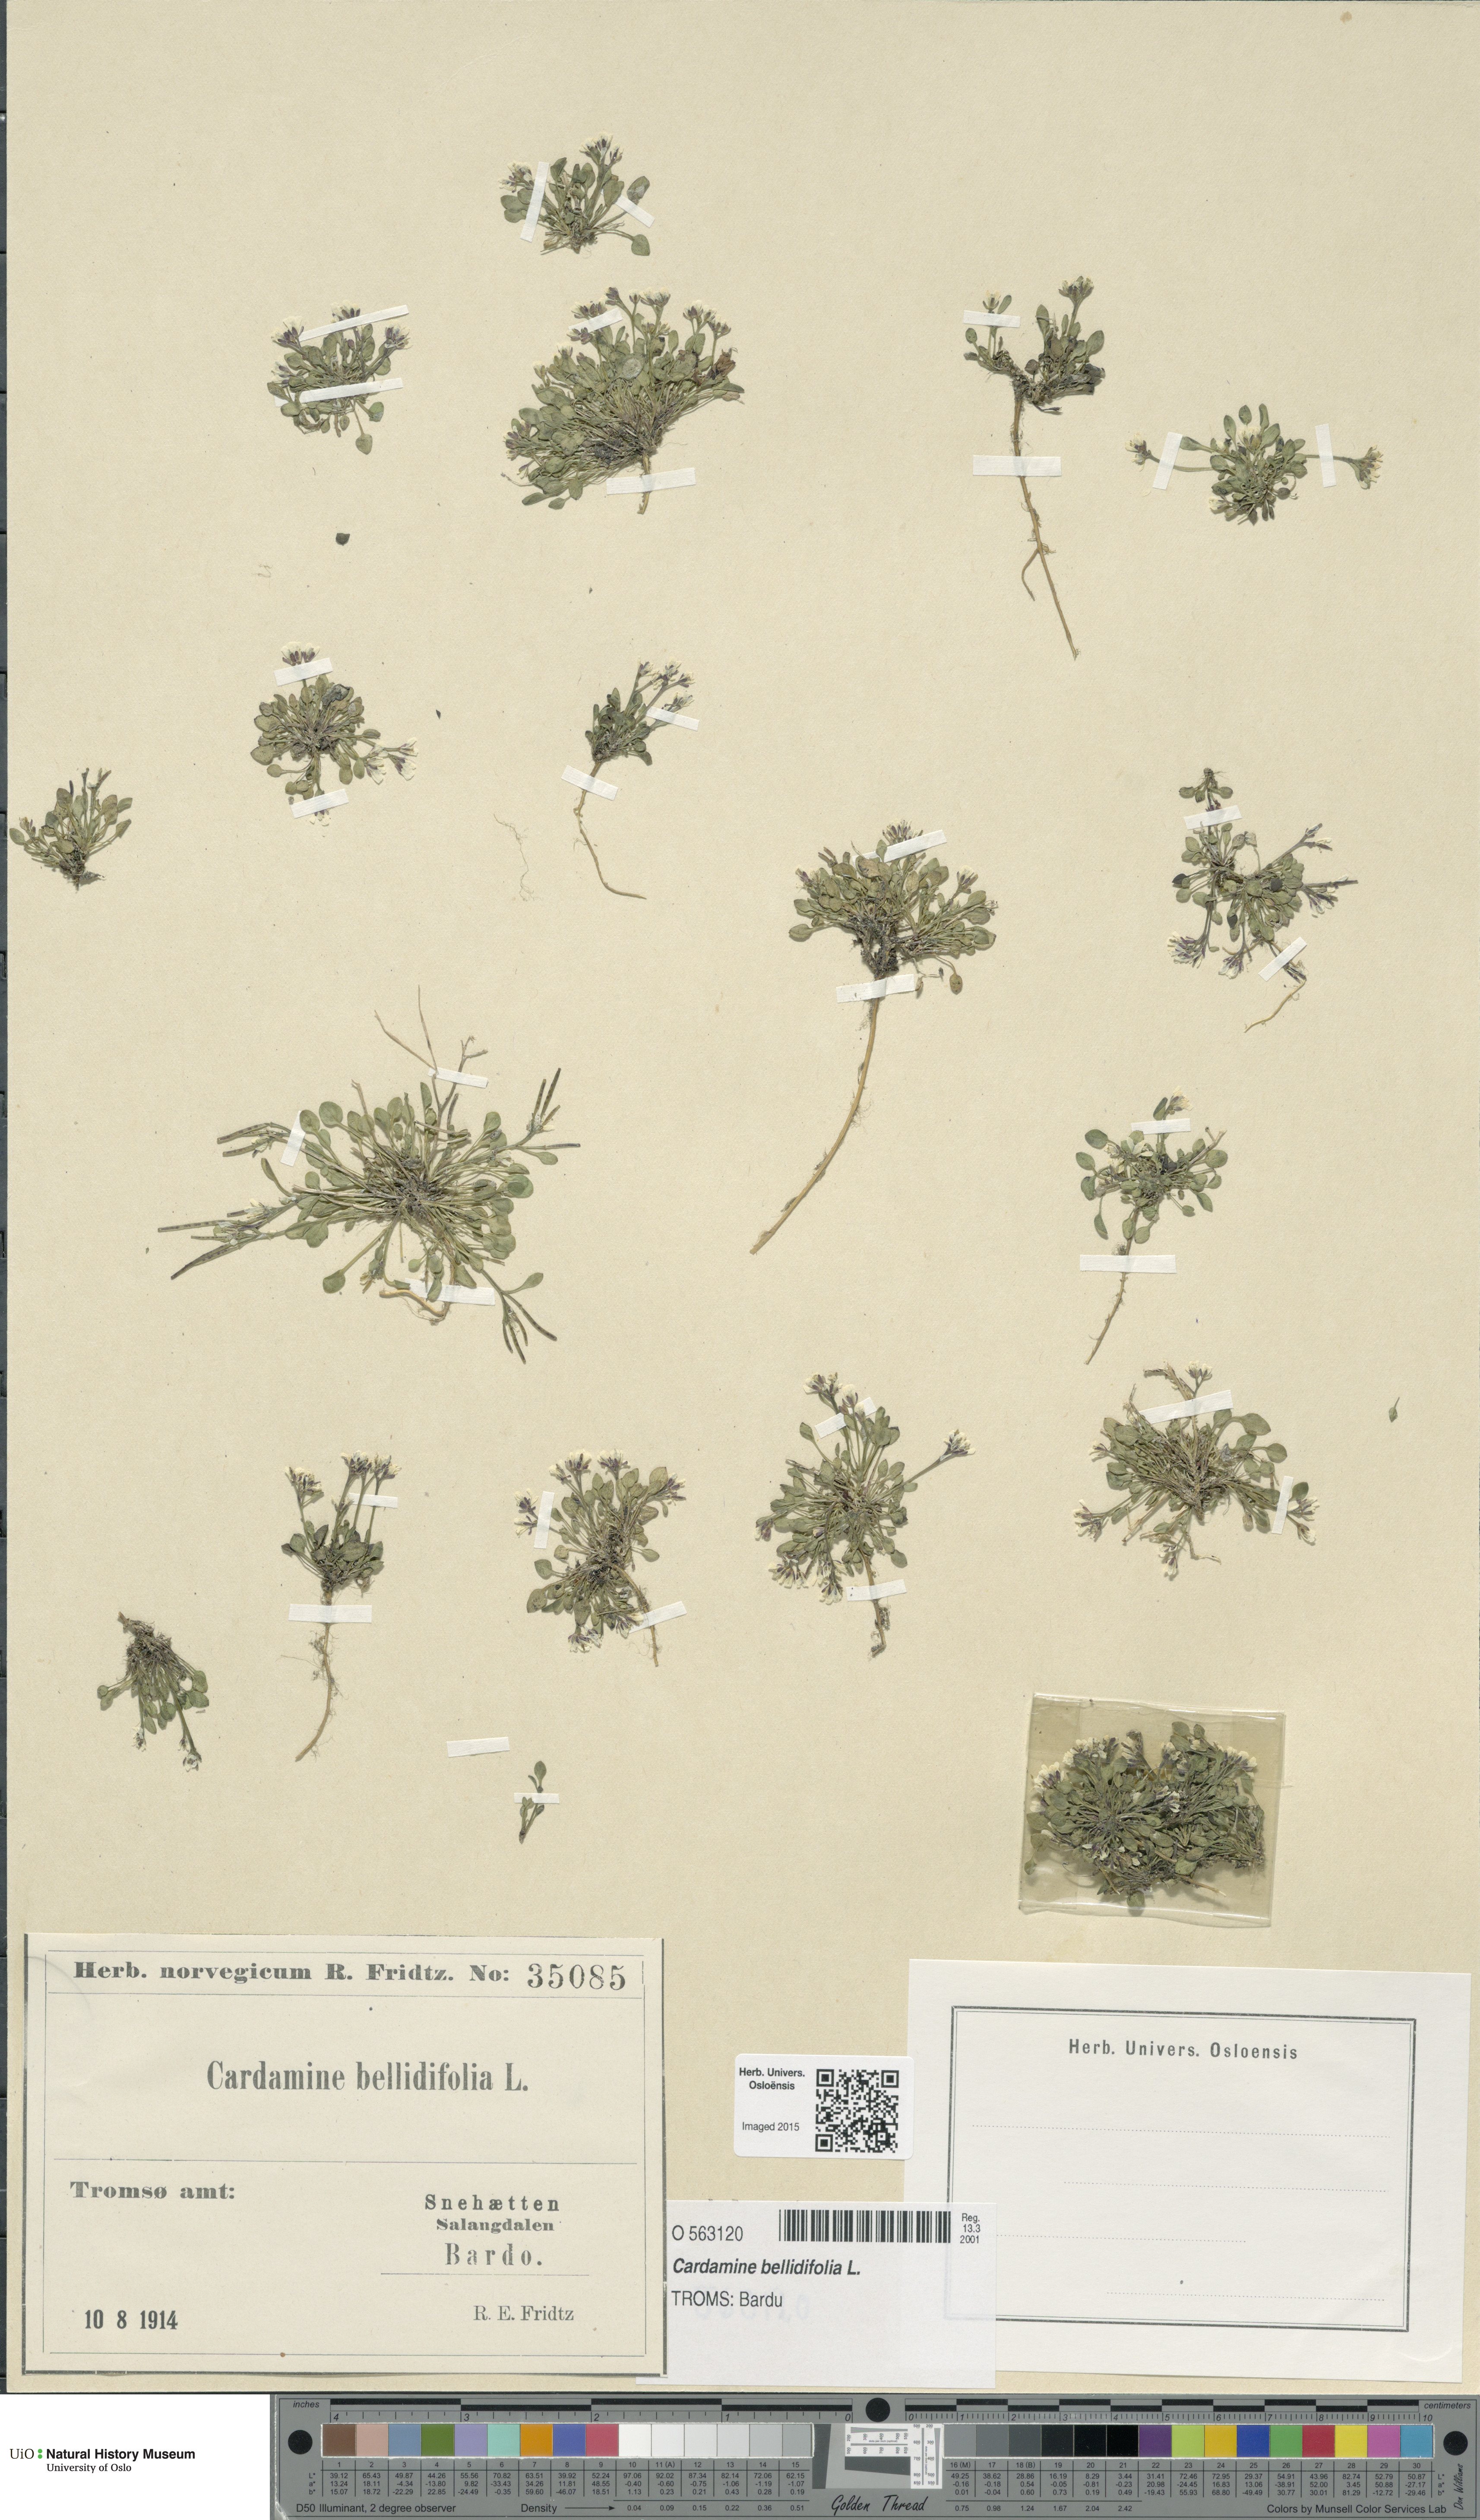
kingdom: Plantae
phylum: Tracheophyta
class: Magnoliopsida
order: Brassicales
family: Brassicaceae
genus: Cardamine
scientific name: Cardamine bellidifolia
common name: Alpine bittercress
